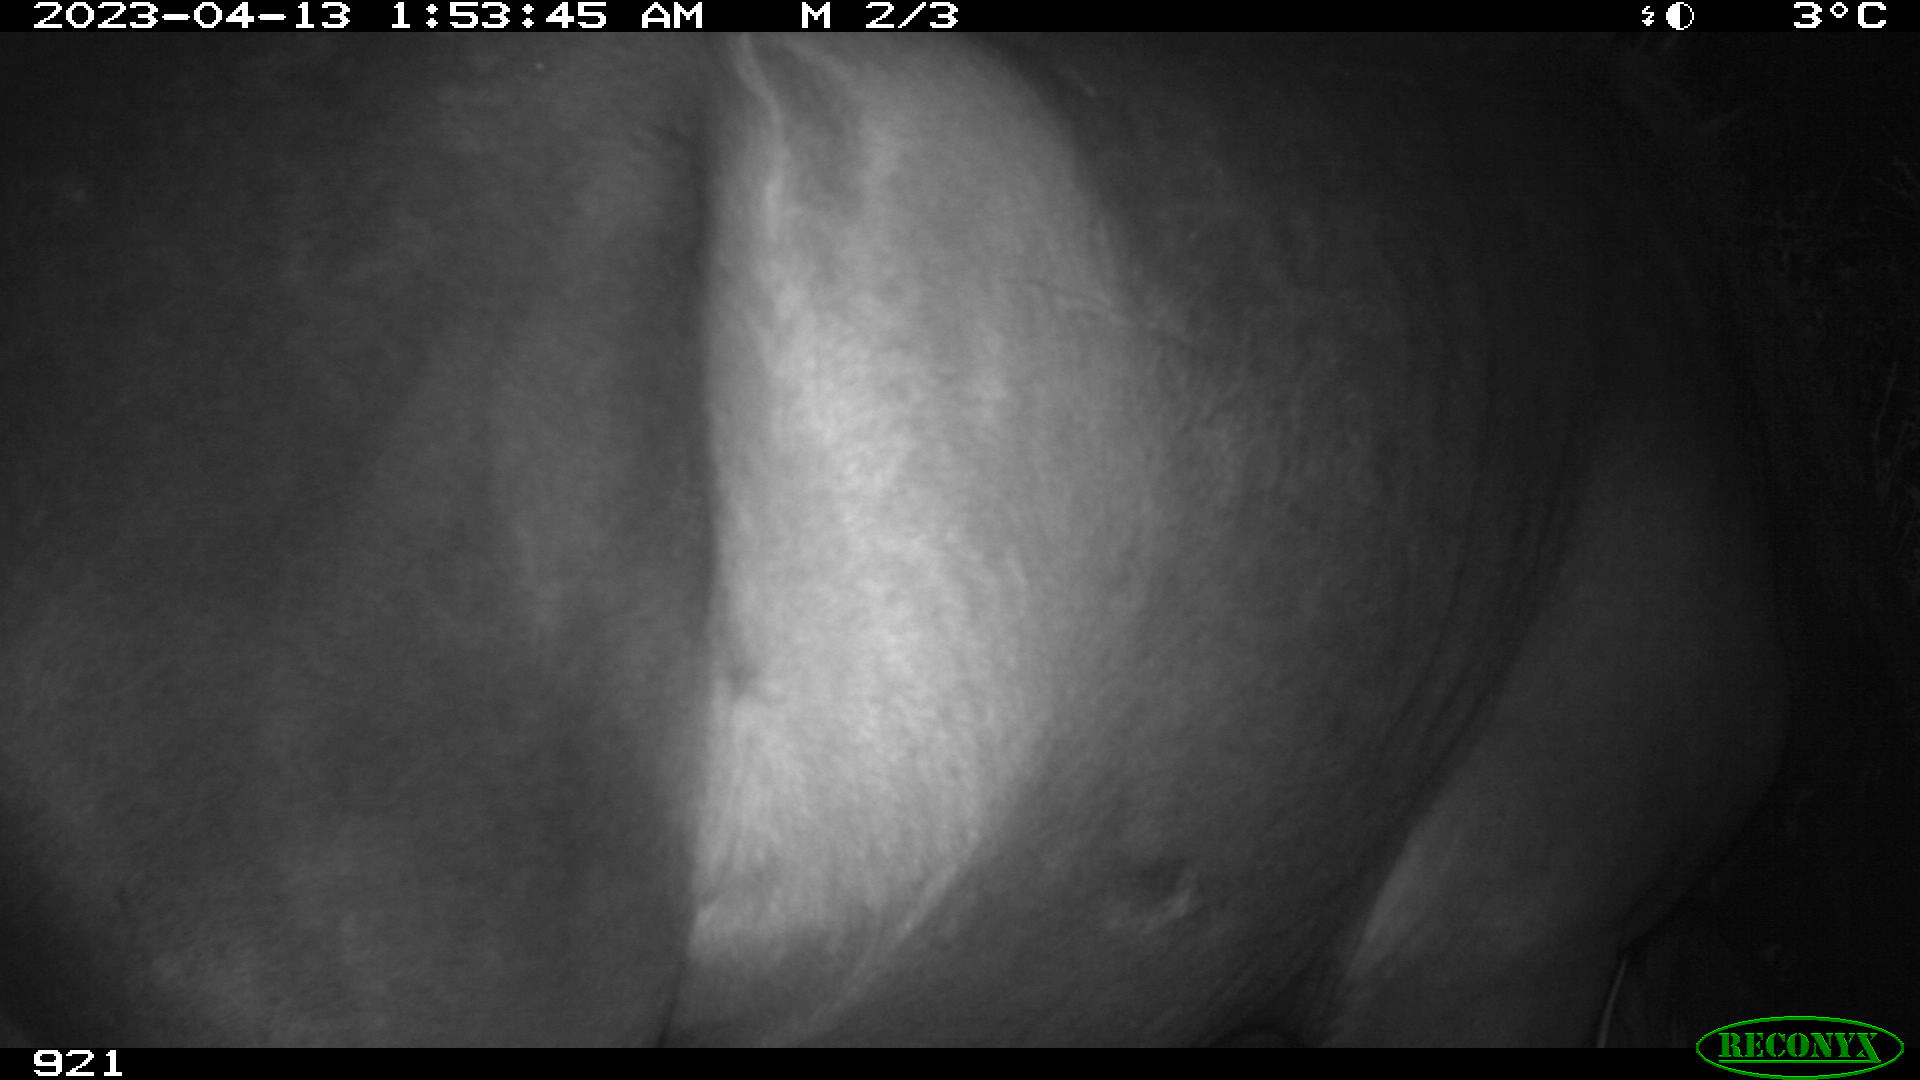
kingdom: Animalia
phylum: Chordata
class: Mammalia
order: Perissodactyla
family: Equidae
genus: Equus
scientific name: Equus caballus
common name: Horse
